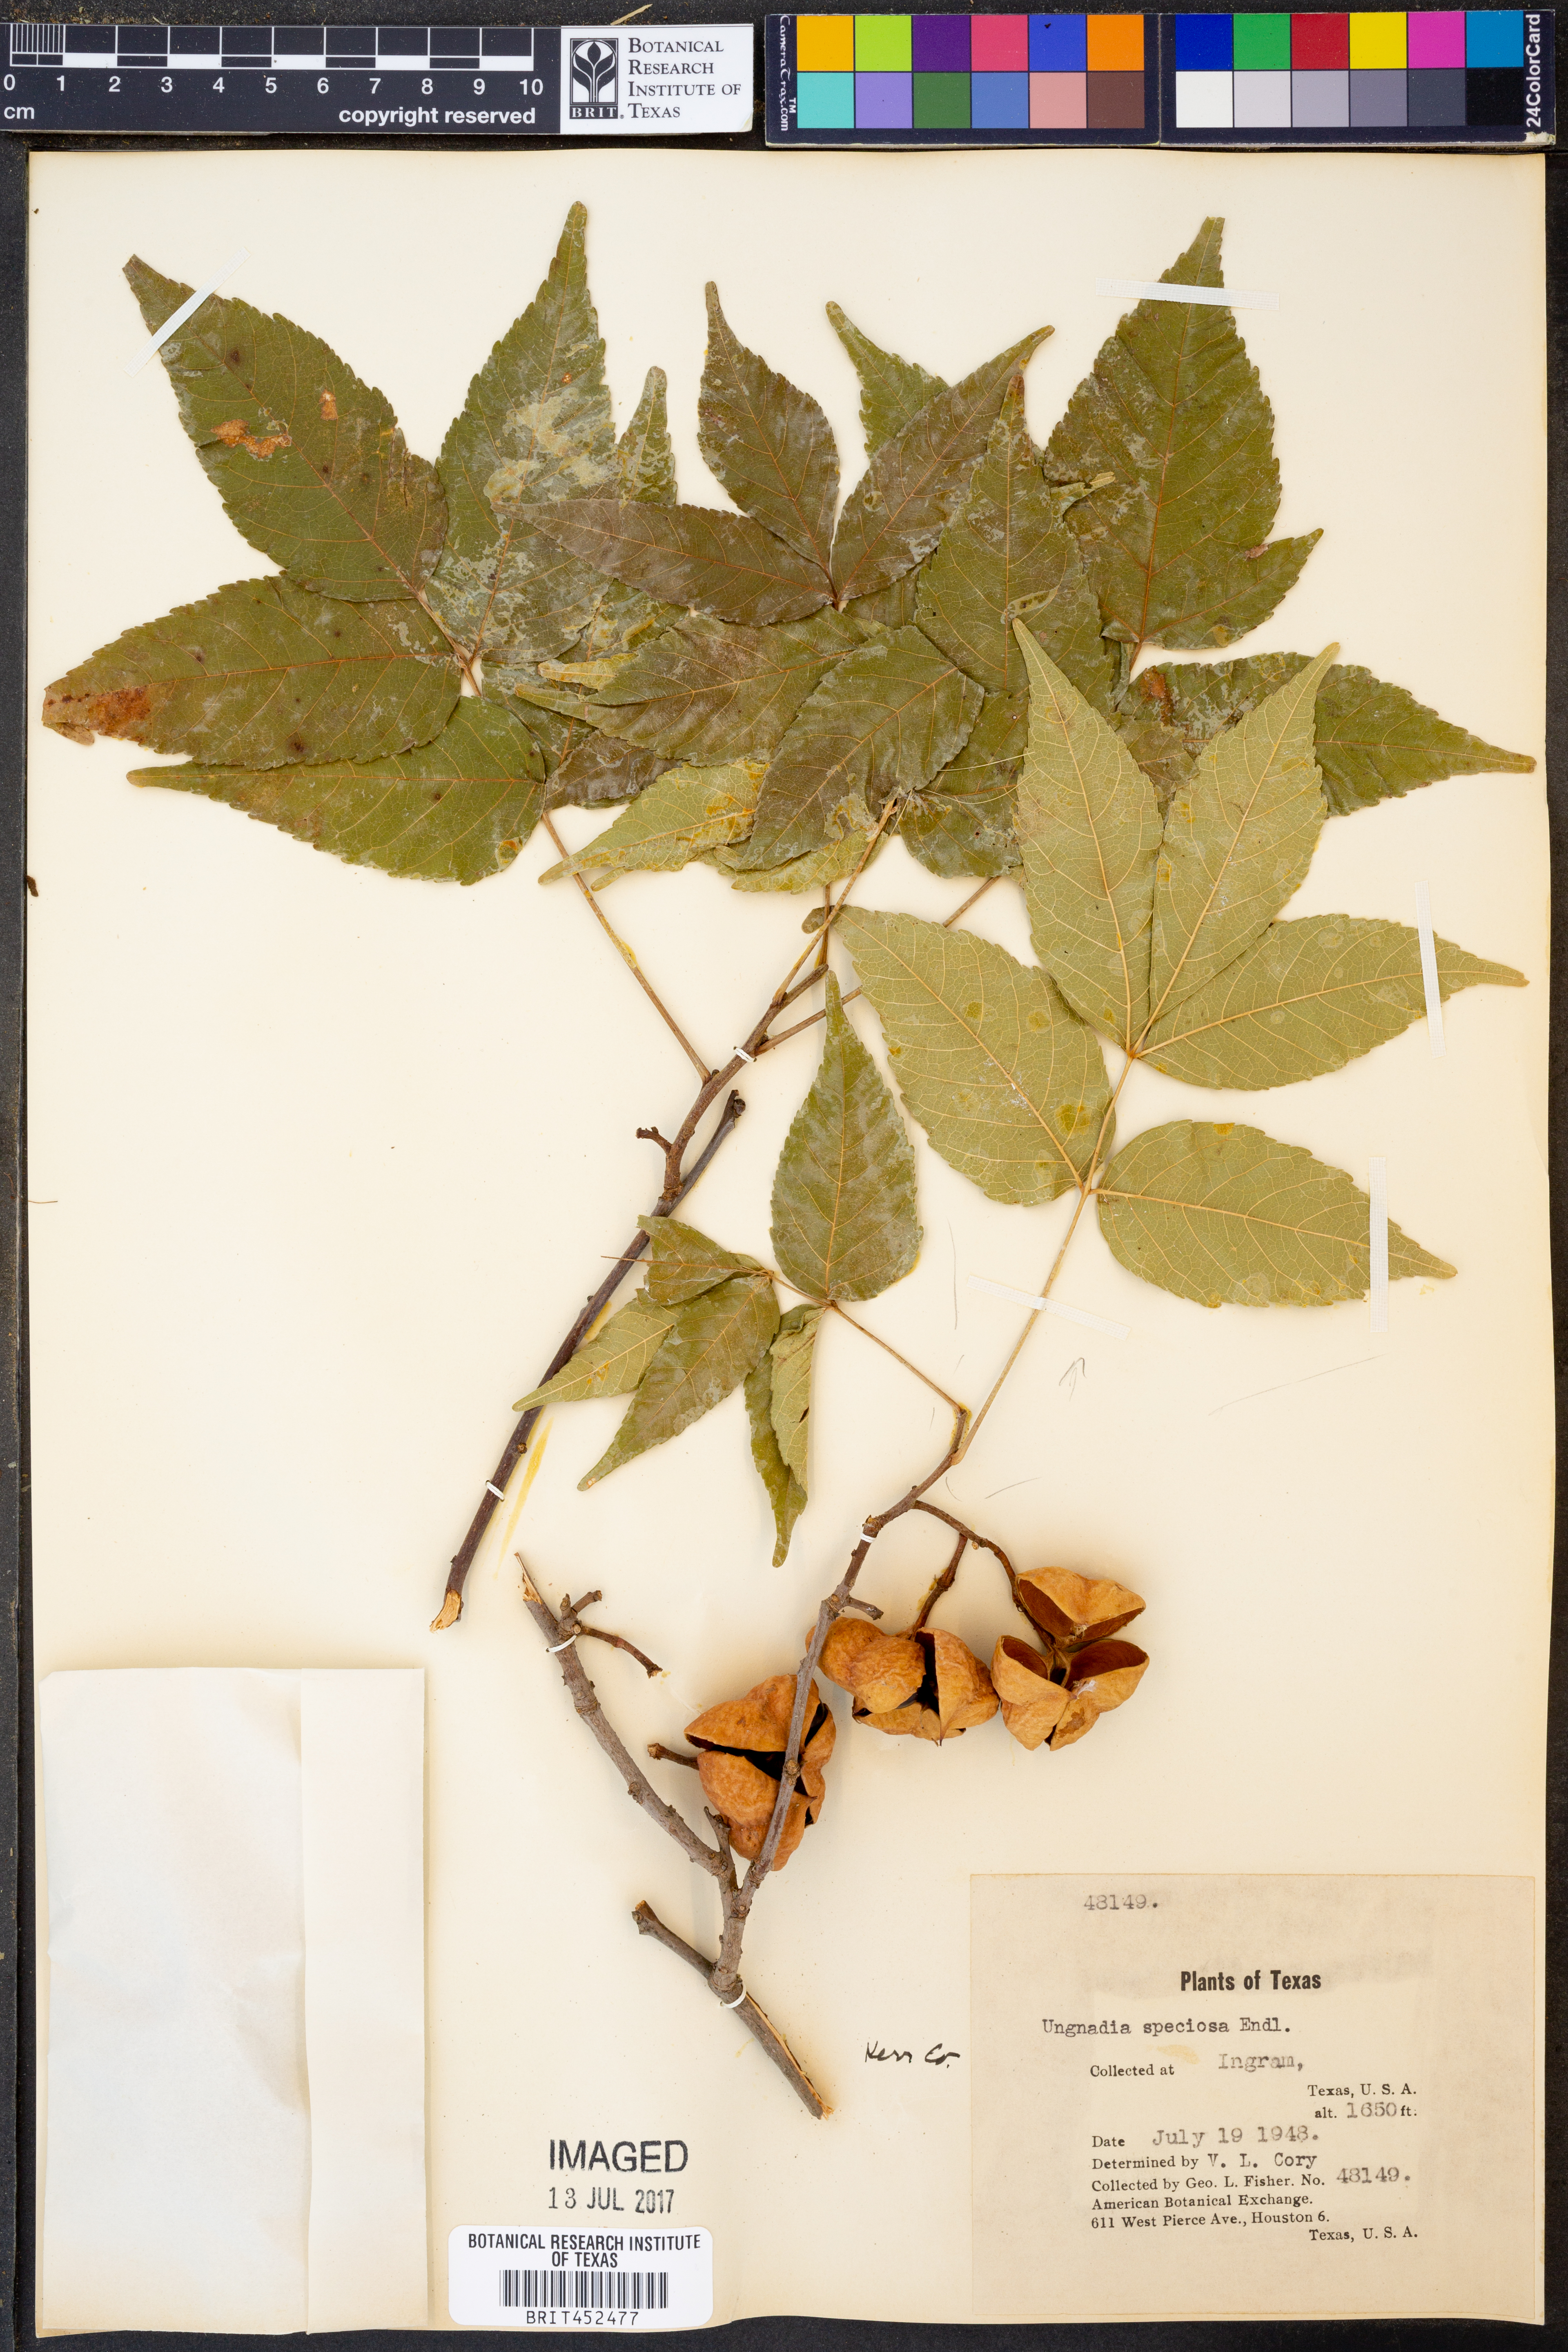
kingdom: Plantae
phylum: Tracheophyta
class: Magnoliopsida
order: Sapindales
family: Sapindaceae
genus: Ungnadia
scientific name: Ungnadia speciosa
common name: Texas-buckeye
